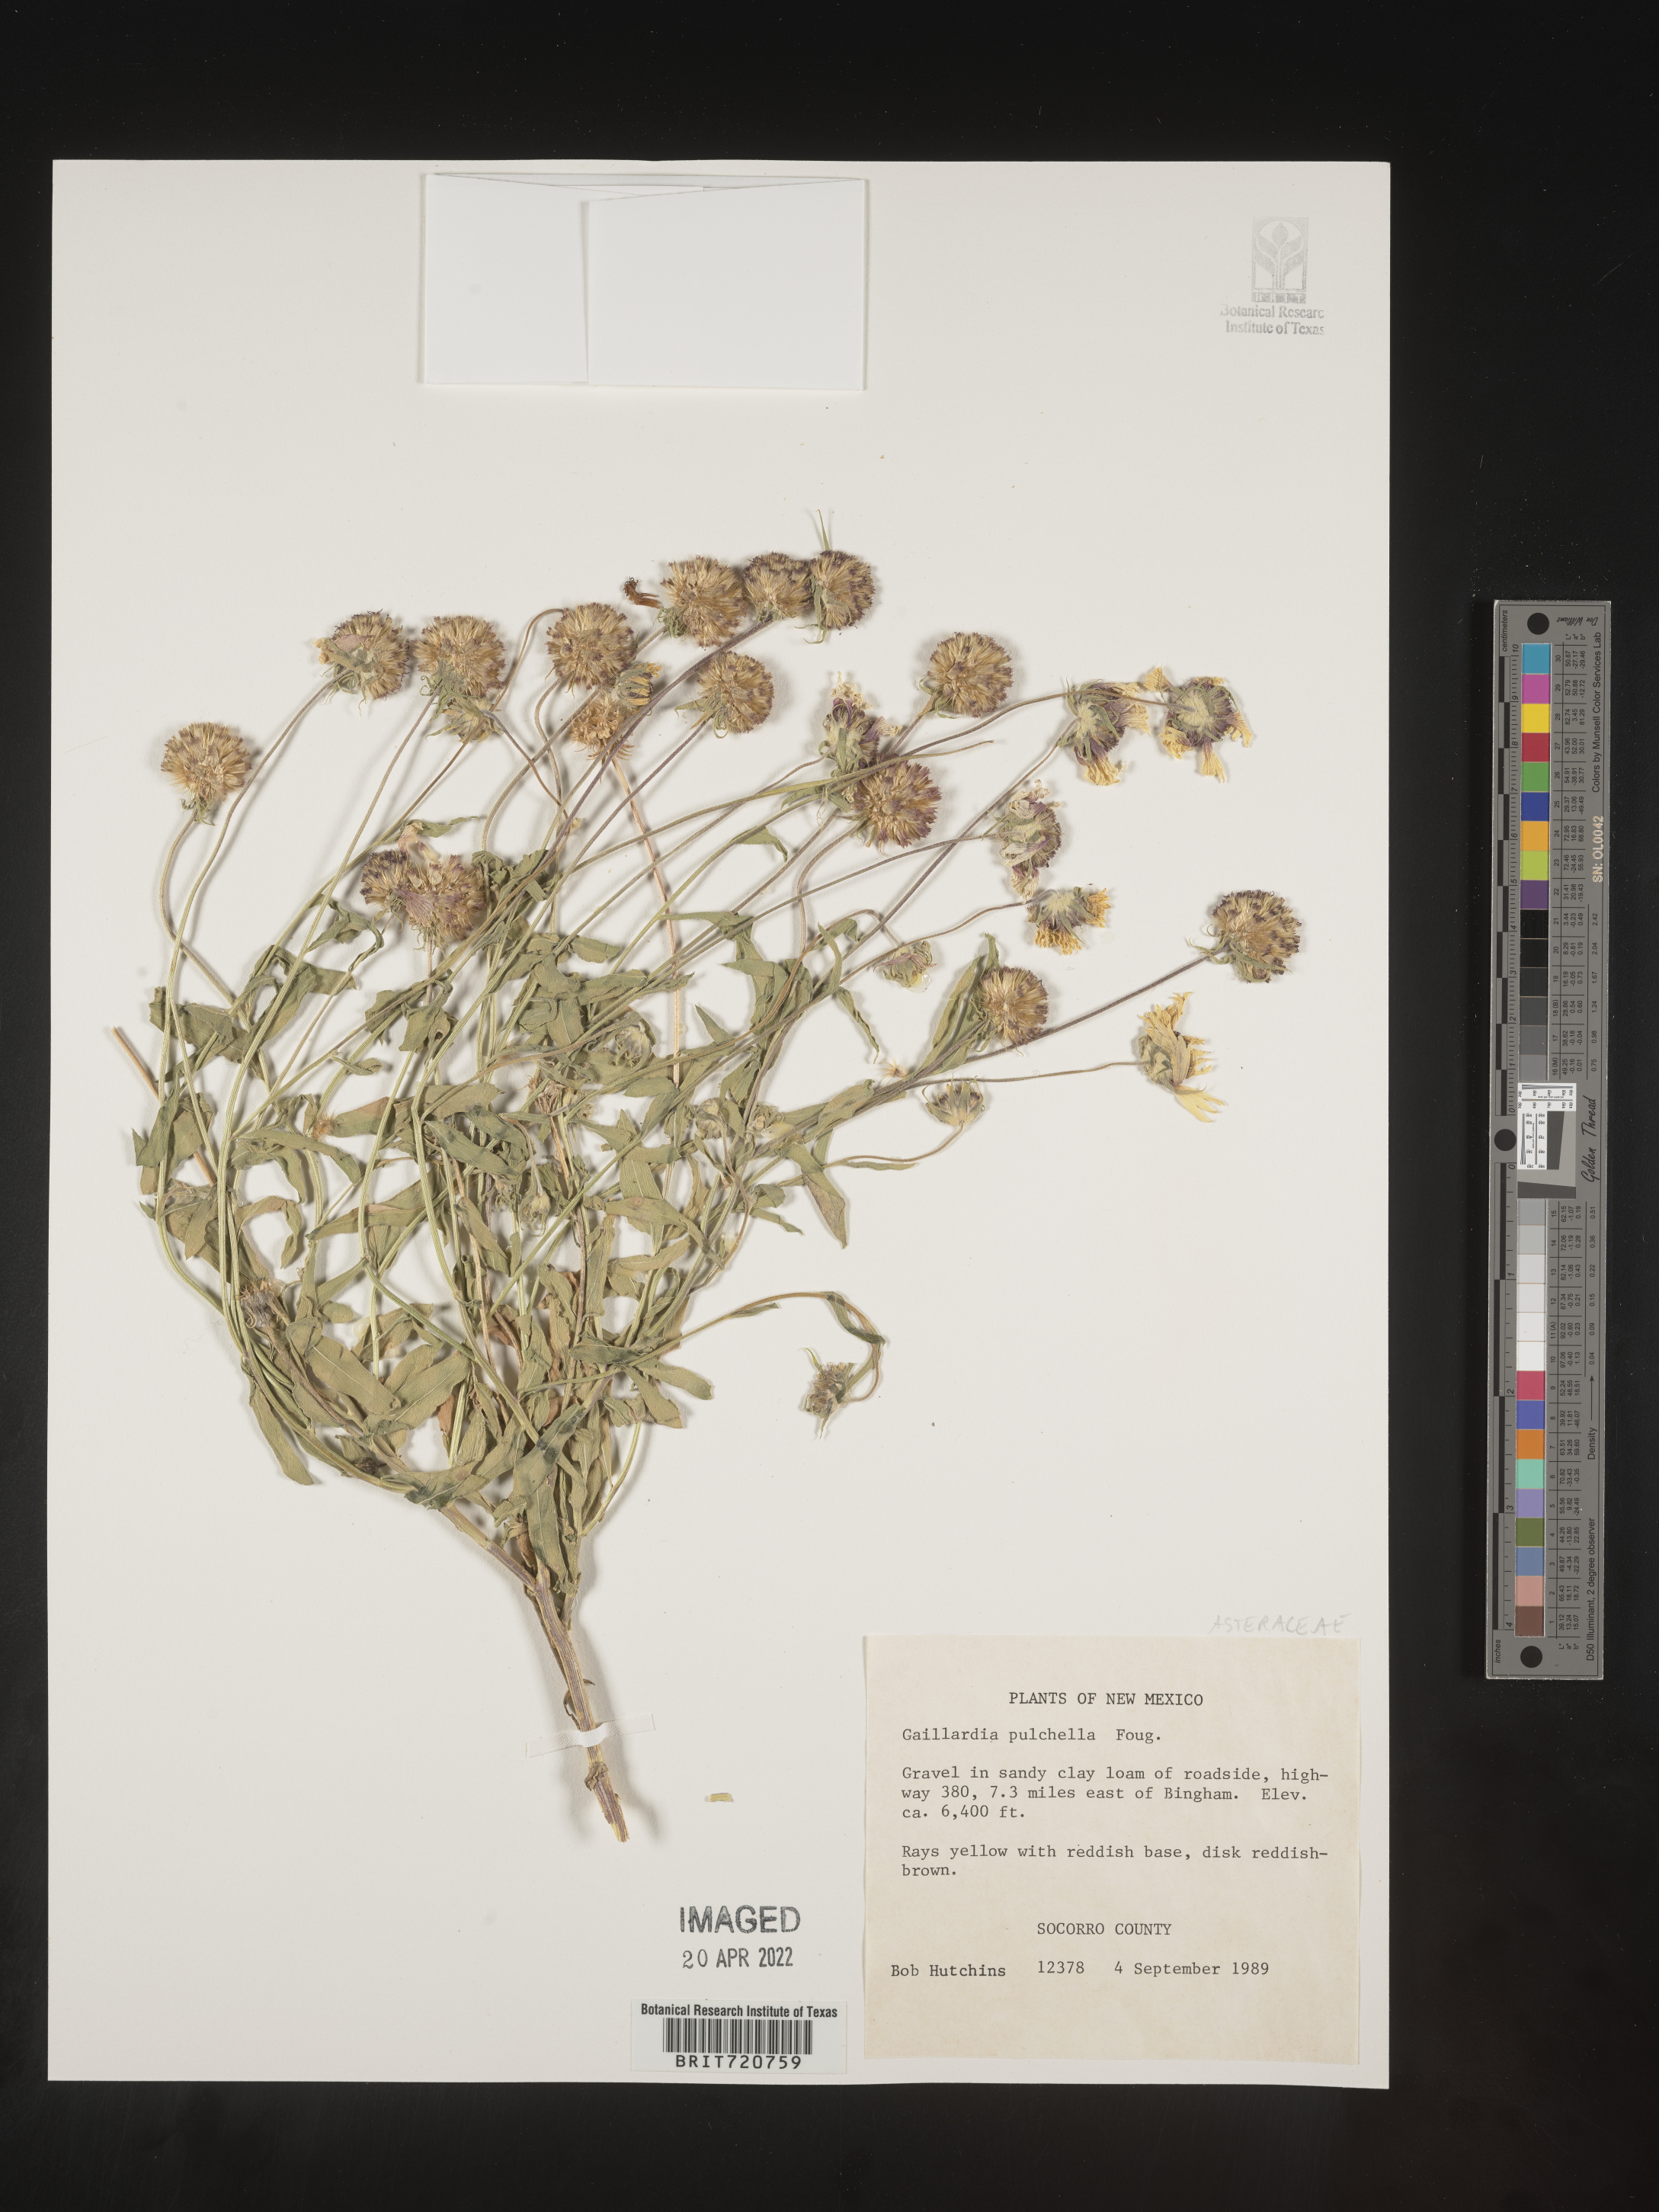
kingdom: Plantae
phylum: Tracheophyta
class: Magnoliopsida
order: Asterales
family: Asteraceae
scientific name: Asteraceae
